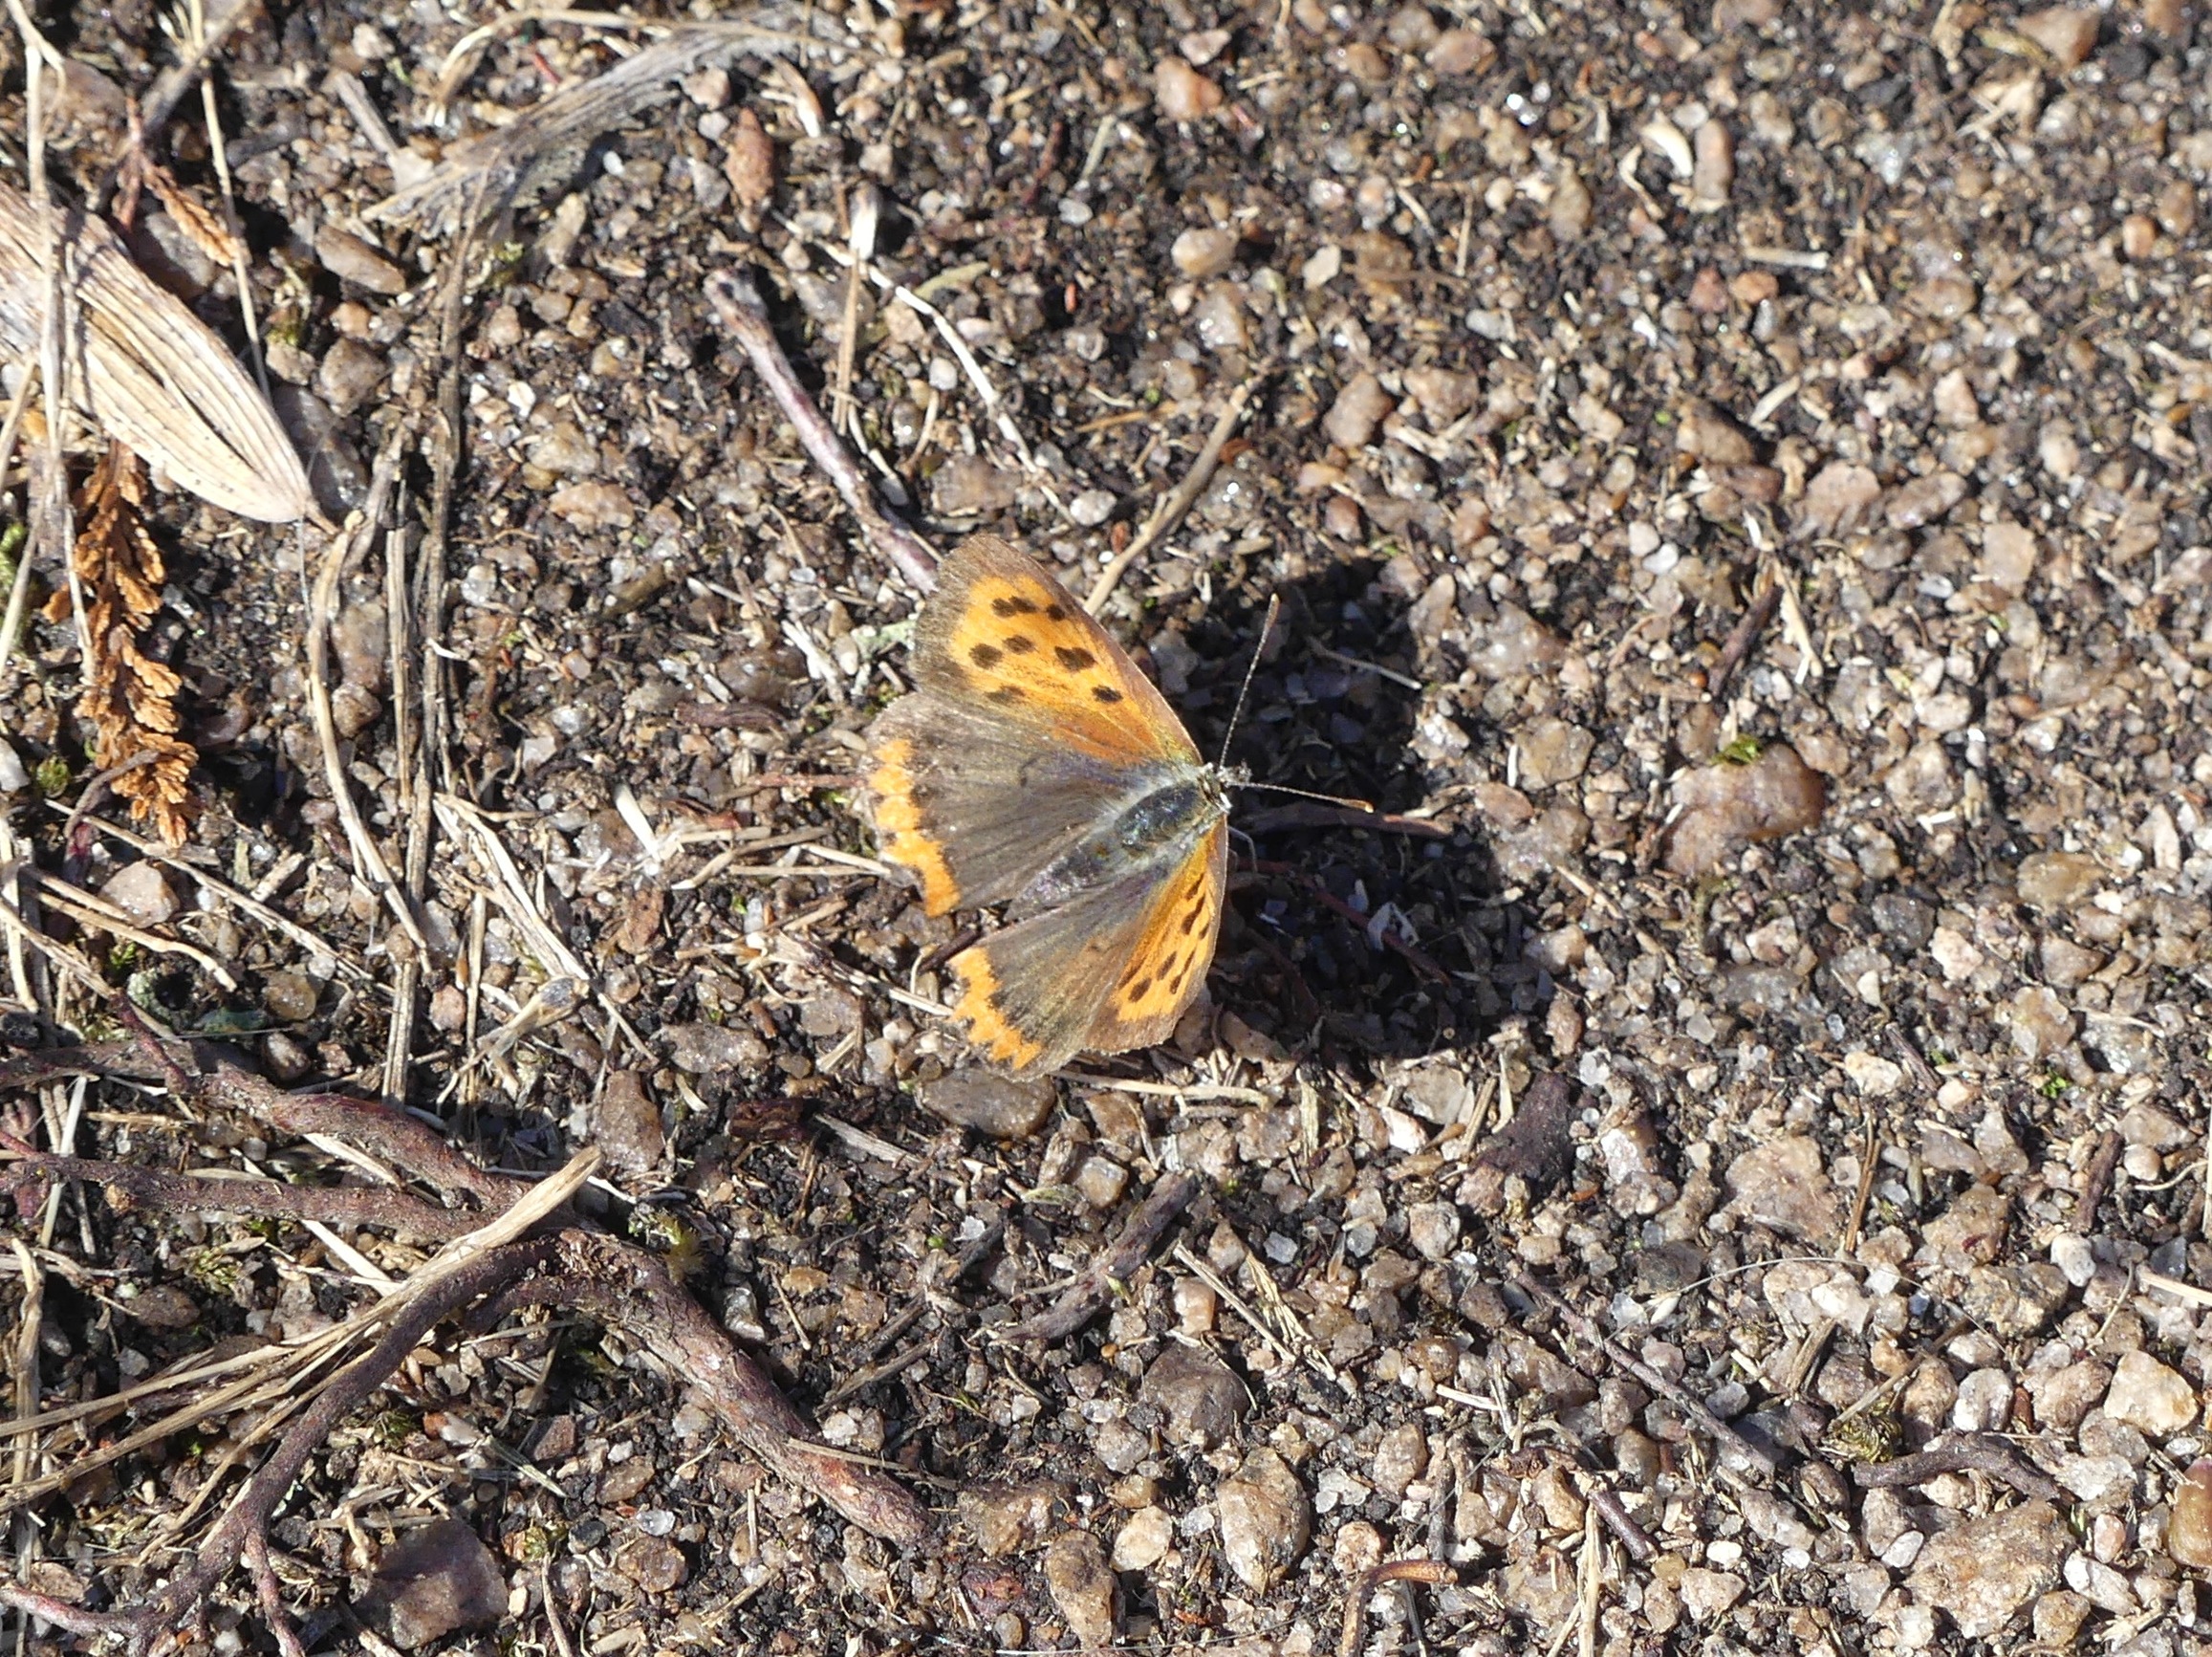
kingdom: Animalia
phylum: Arthropoda
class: Insecta
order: Lepidoptera
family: Lycaenidae
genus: Lycaena
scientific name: Lycaena phlaeas
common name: Lille ildfugl
